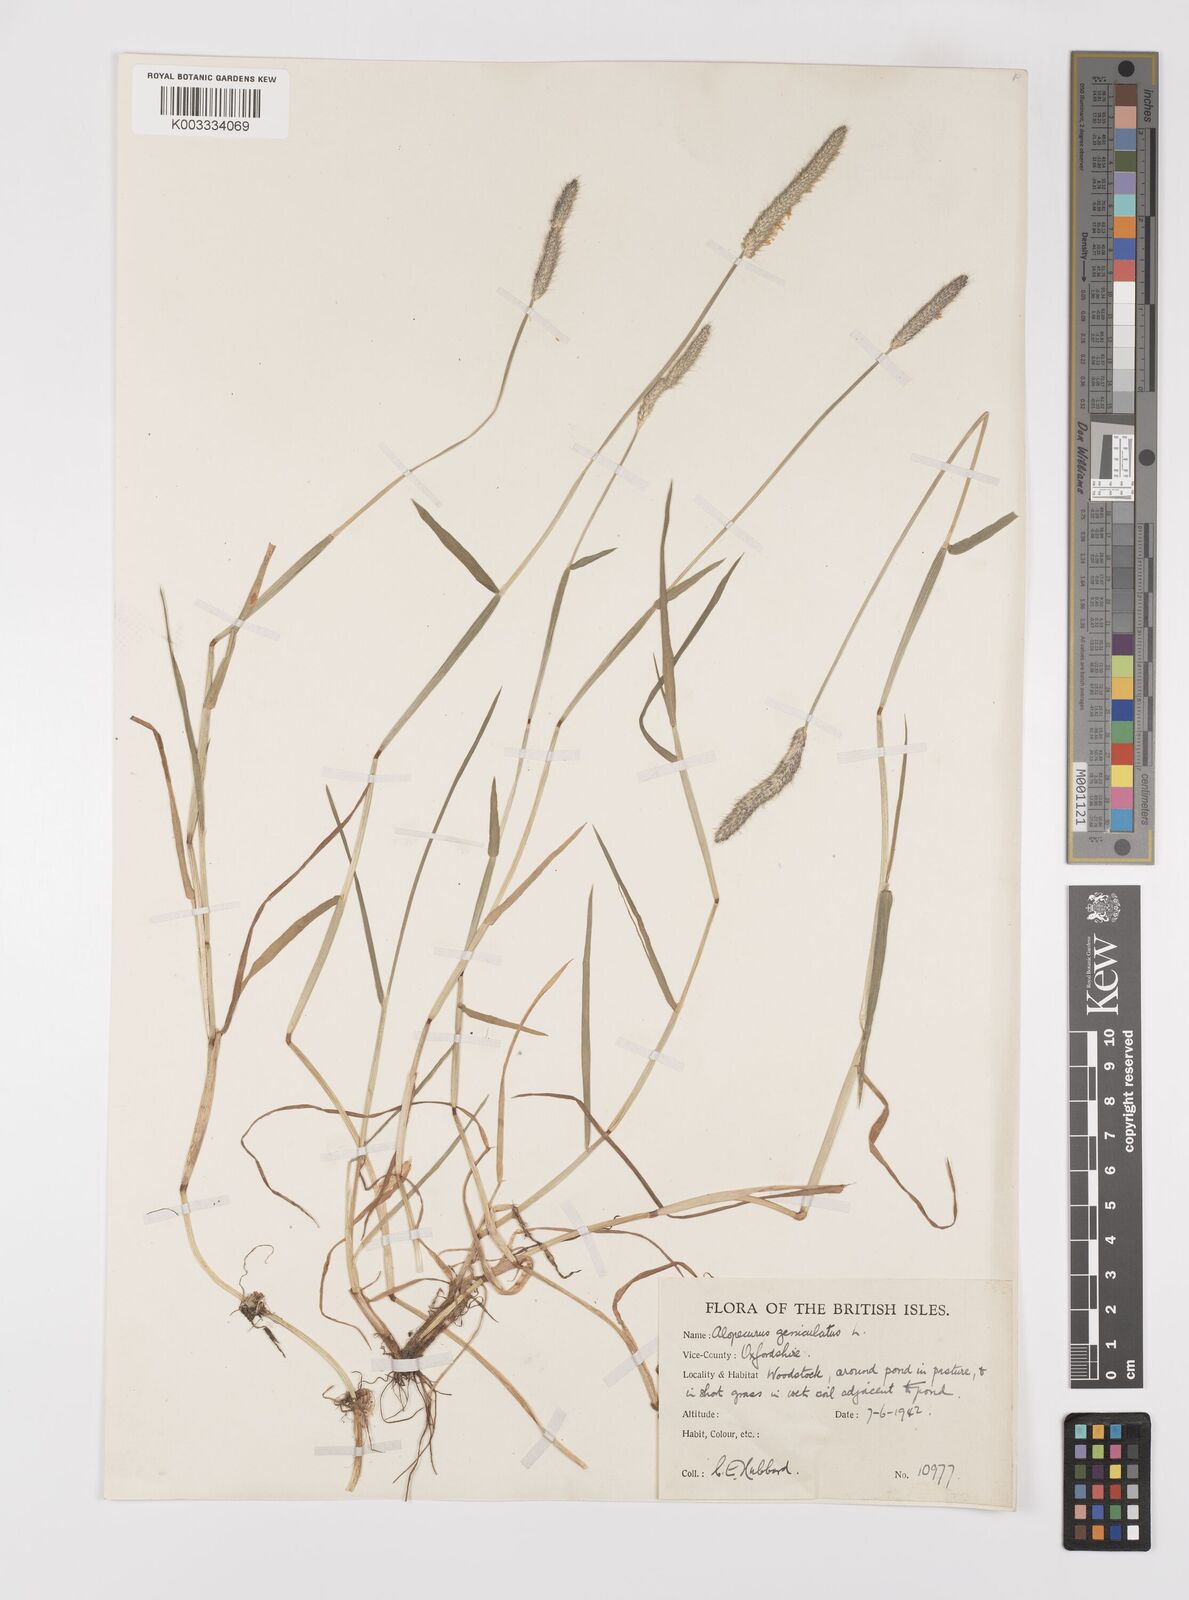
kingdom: Plantae
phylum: Tracheophyta
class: Liliopsida
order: Poales
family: Poaceae
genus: Alopecurus
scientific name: Alopecurus geniculatus
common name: Water foxtail
